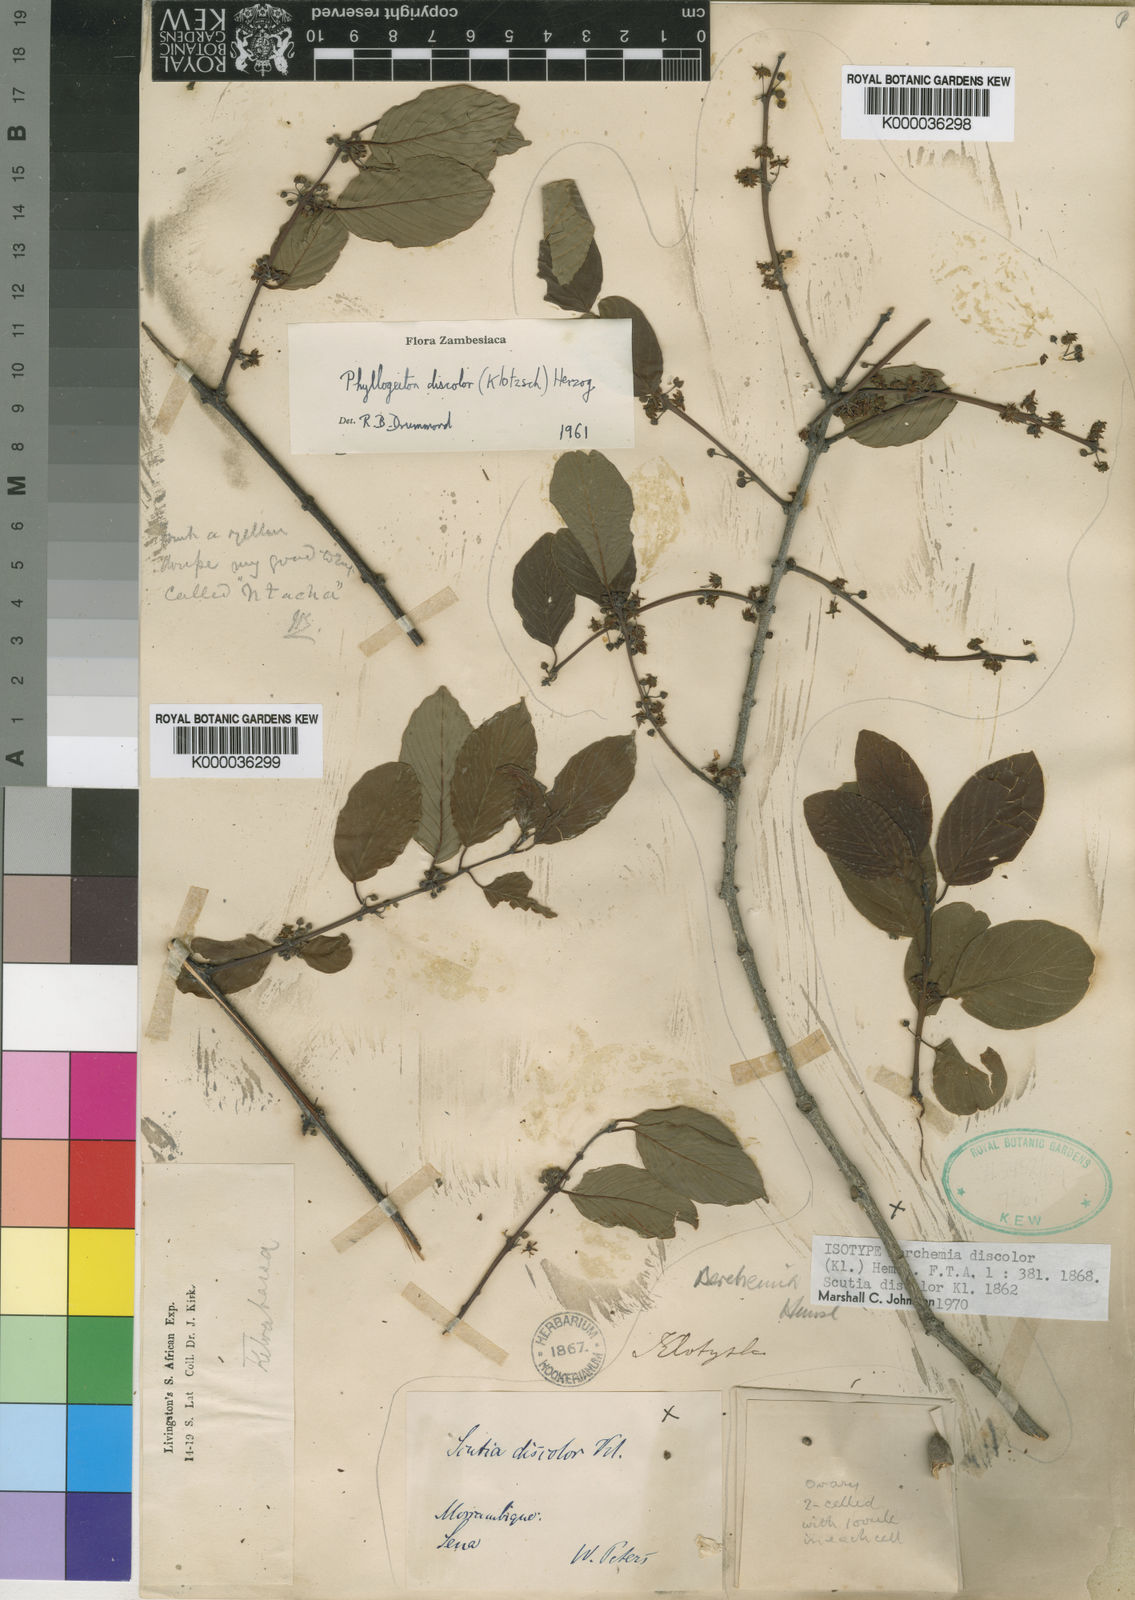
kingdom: Plantae
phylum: Tracheophyta
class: Magnoliopsida
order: Rosales
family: Rhamnaceae
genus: Phyllogeiton
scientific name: Phyllogeiton discolor
